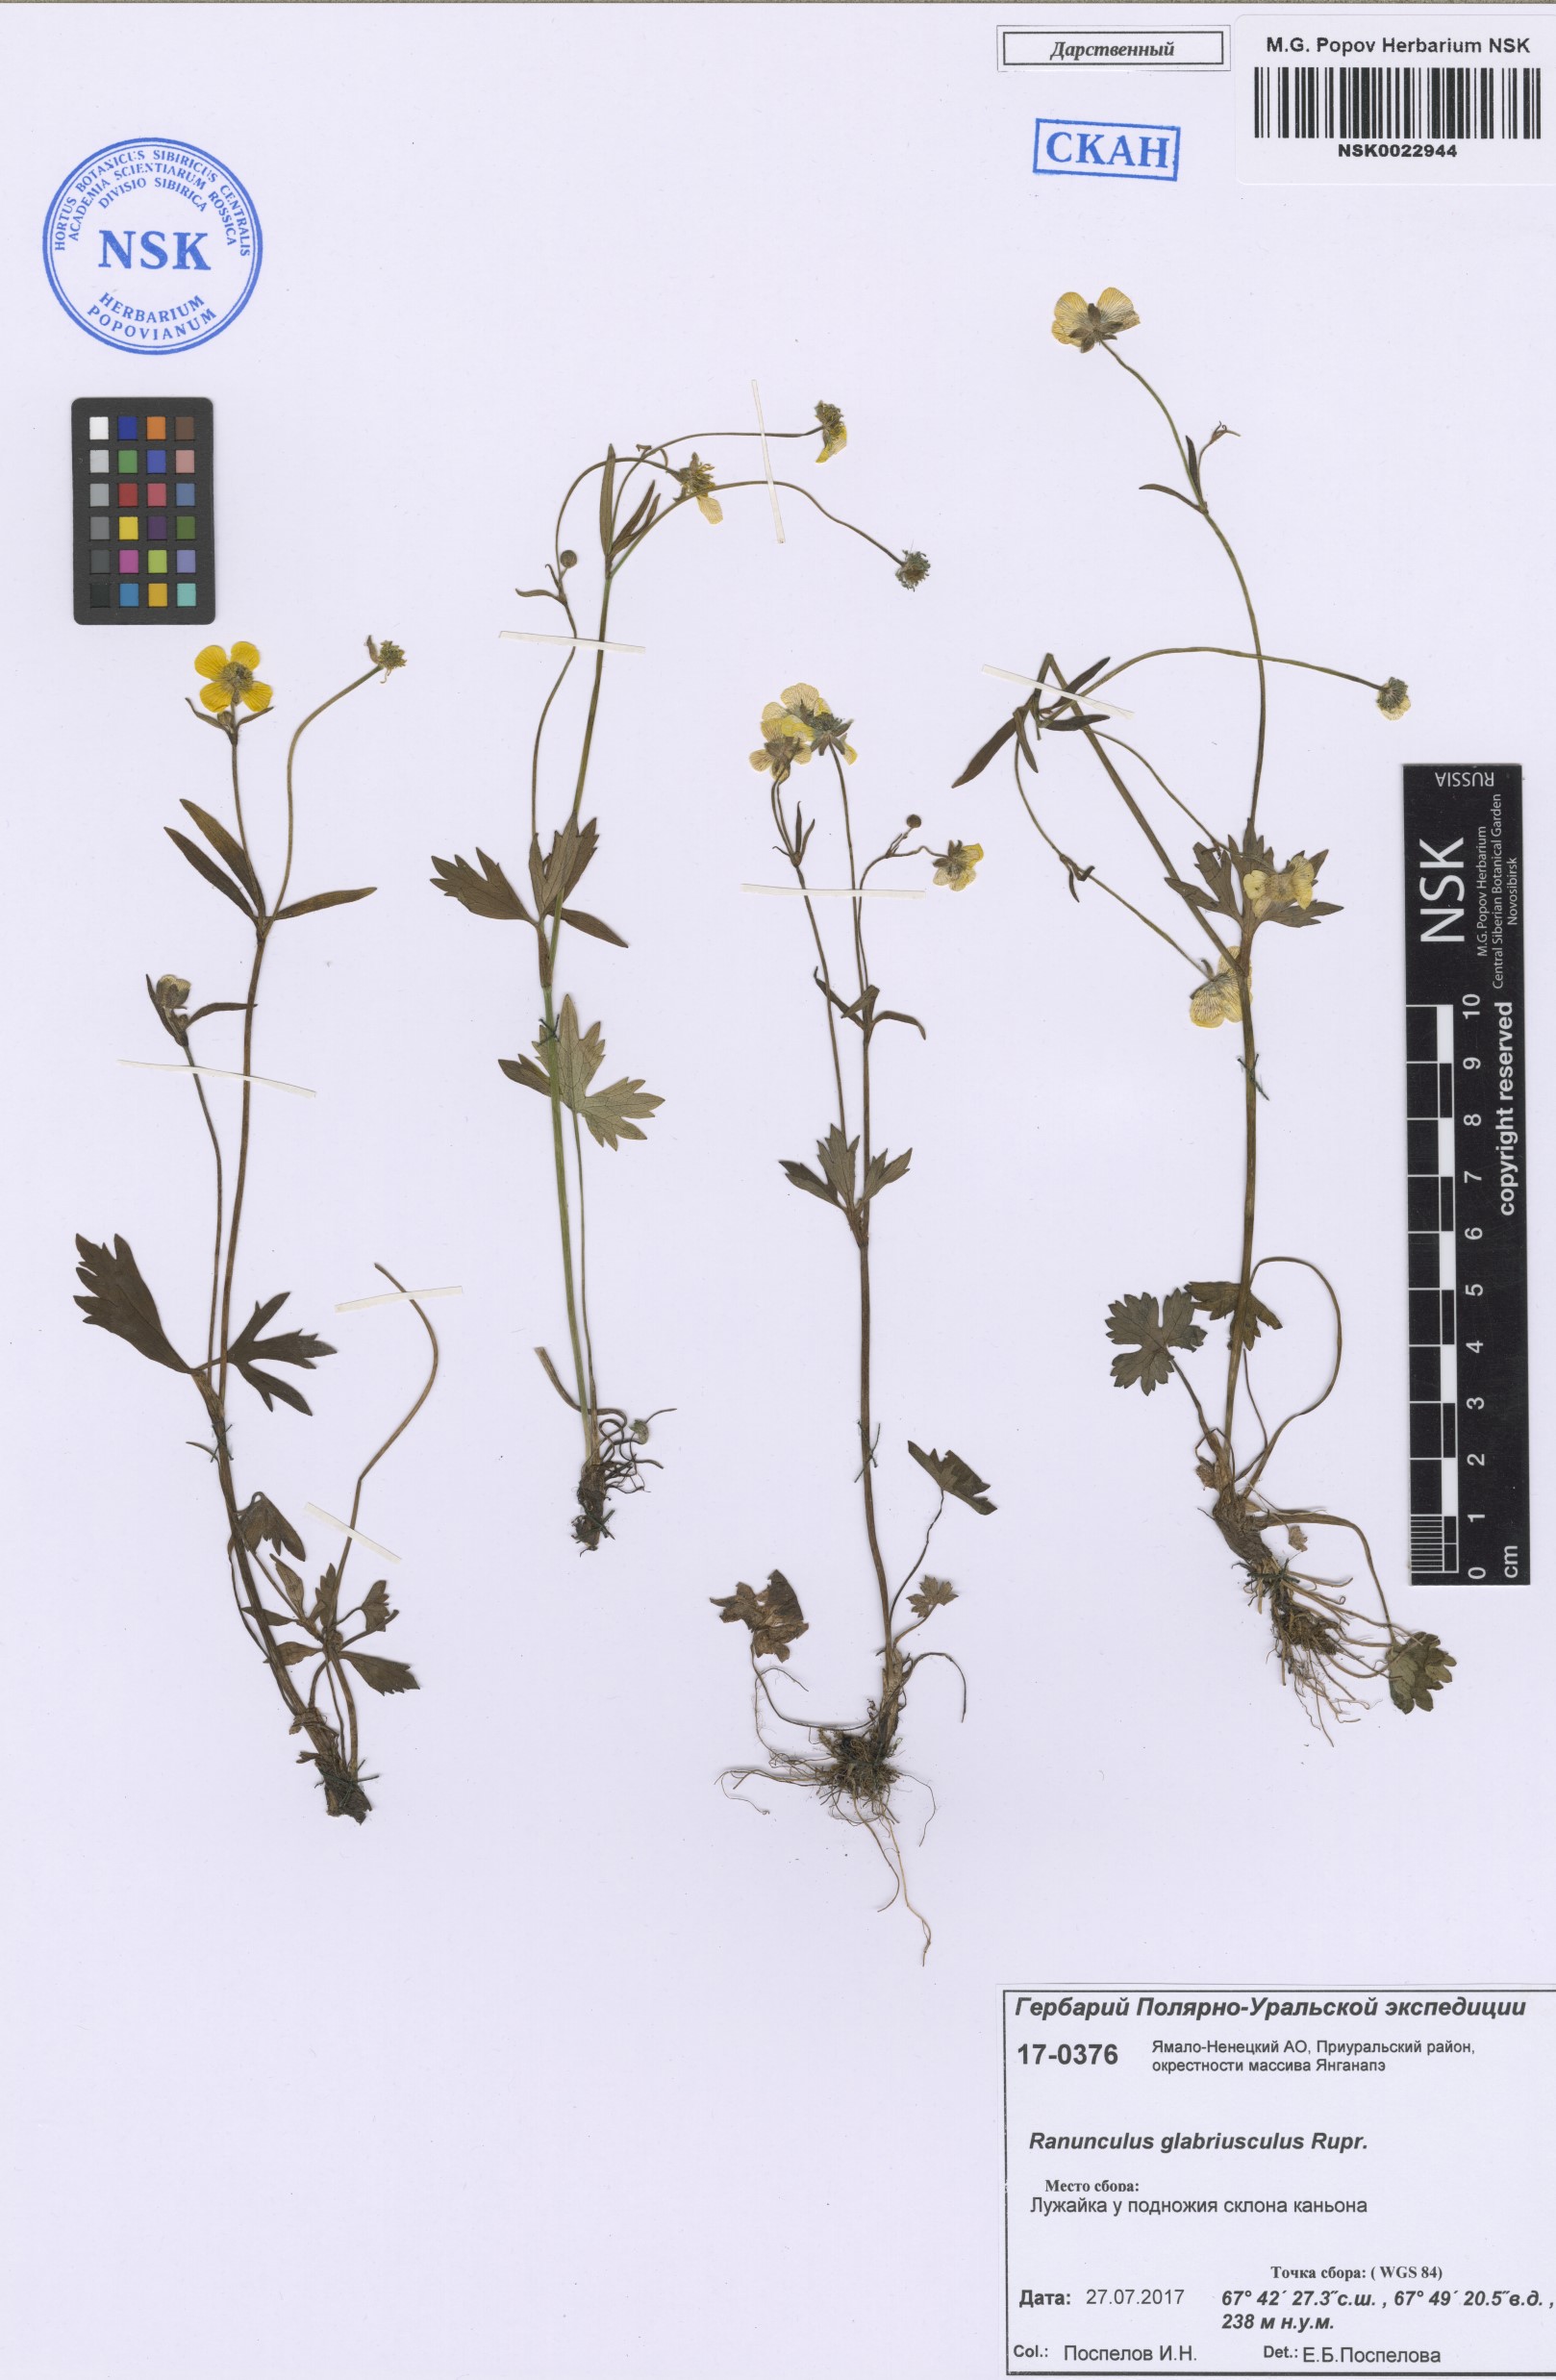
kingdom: Plantae
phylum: Tracheophyta
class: Magnoliopsida
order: Ranunculales
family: Ranunculaceae
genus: Ranunculus
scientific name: Ranunculus propinquus
